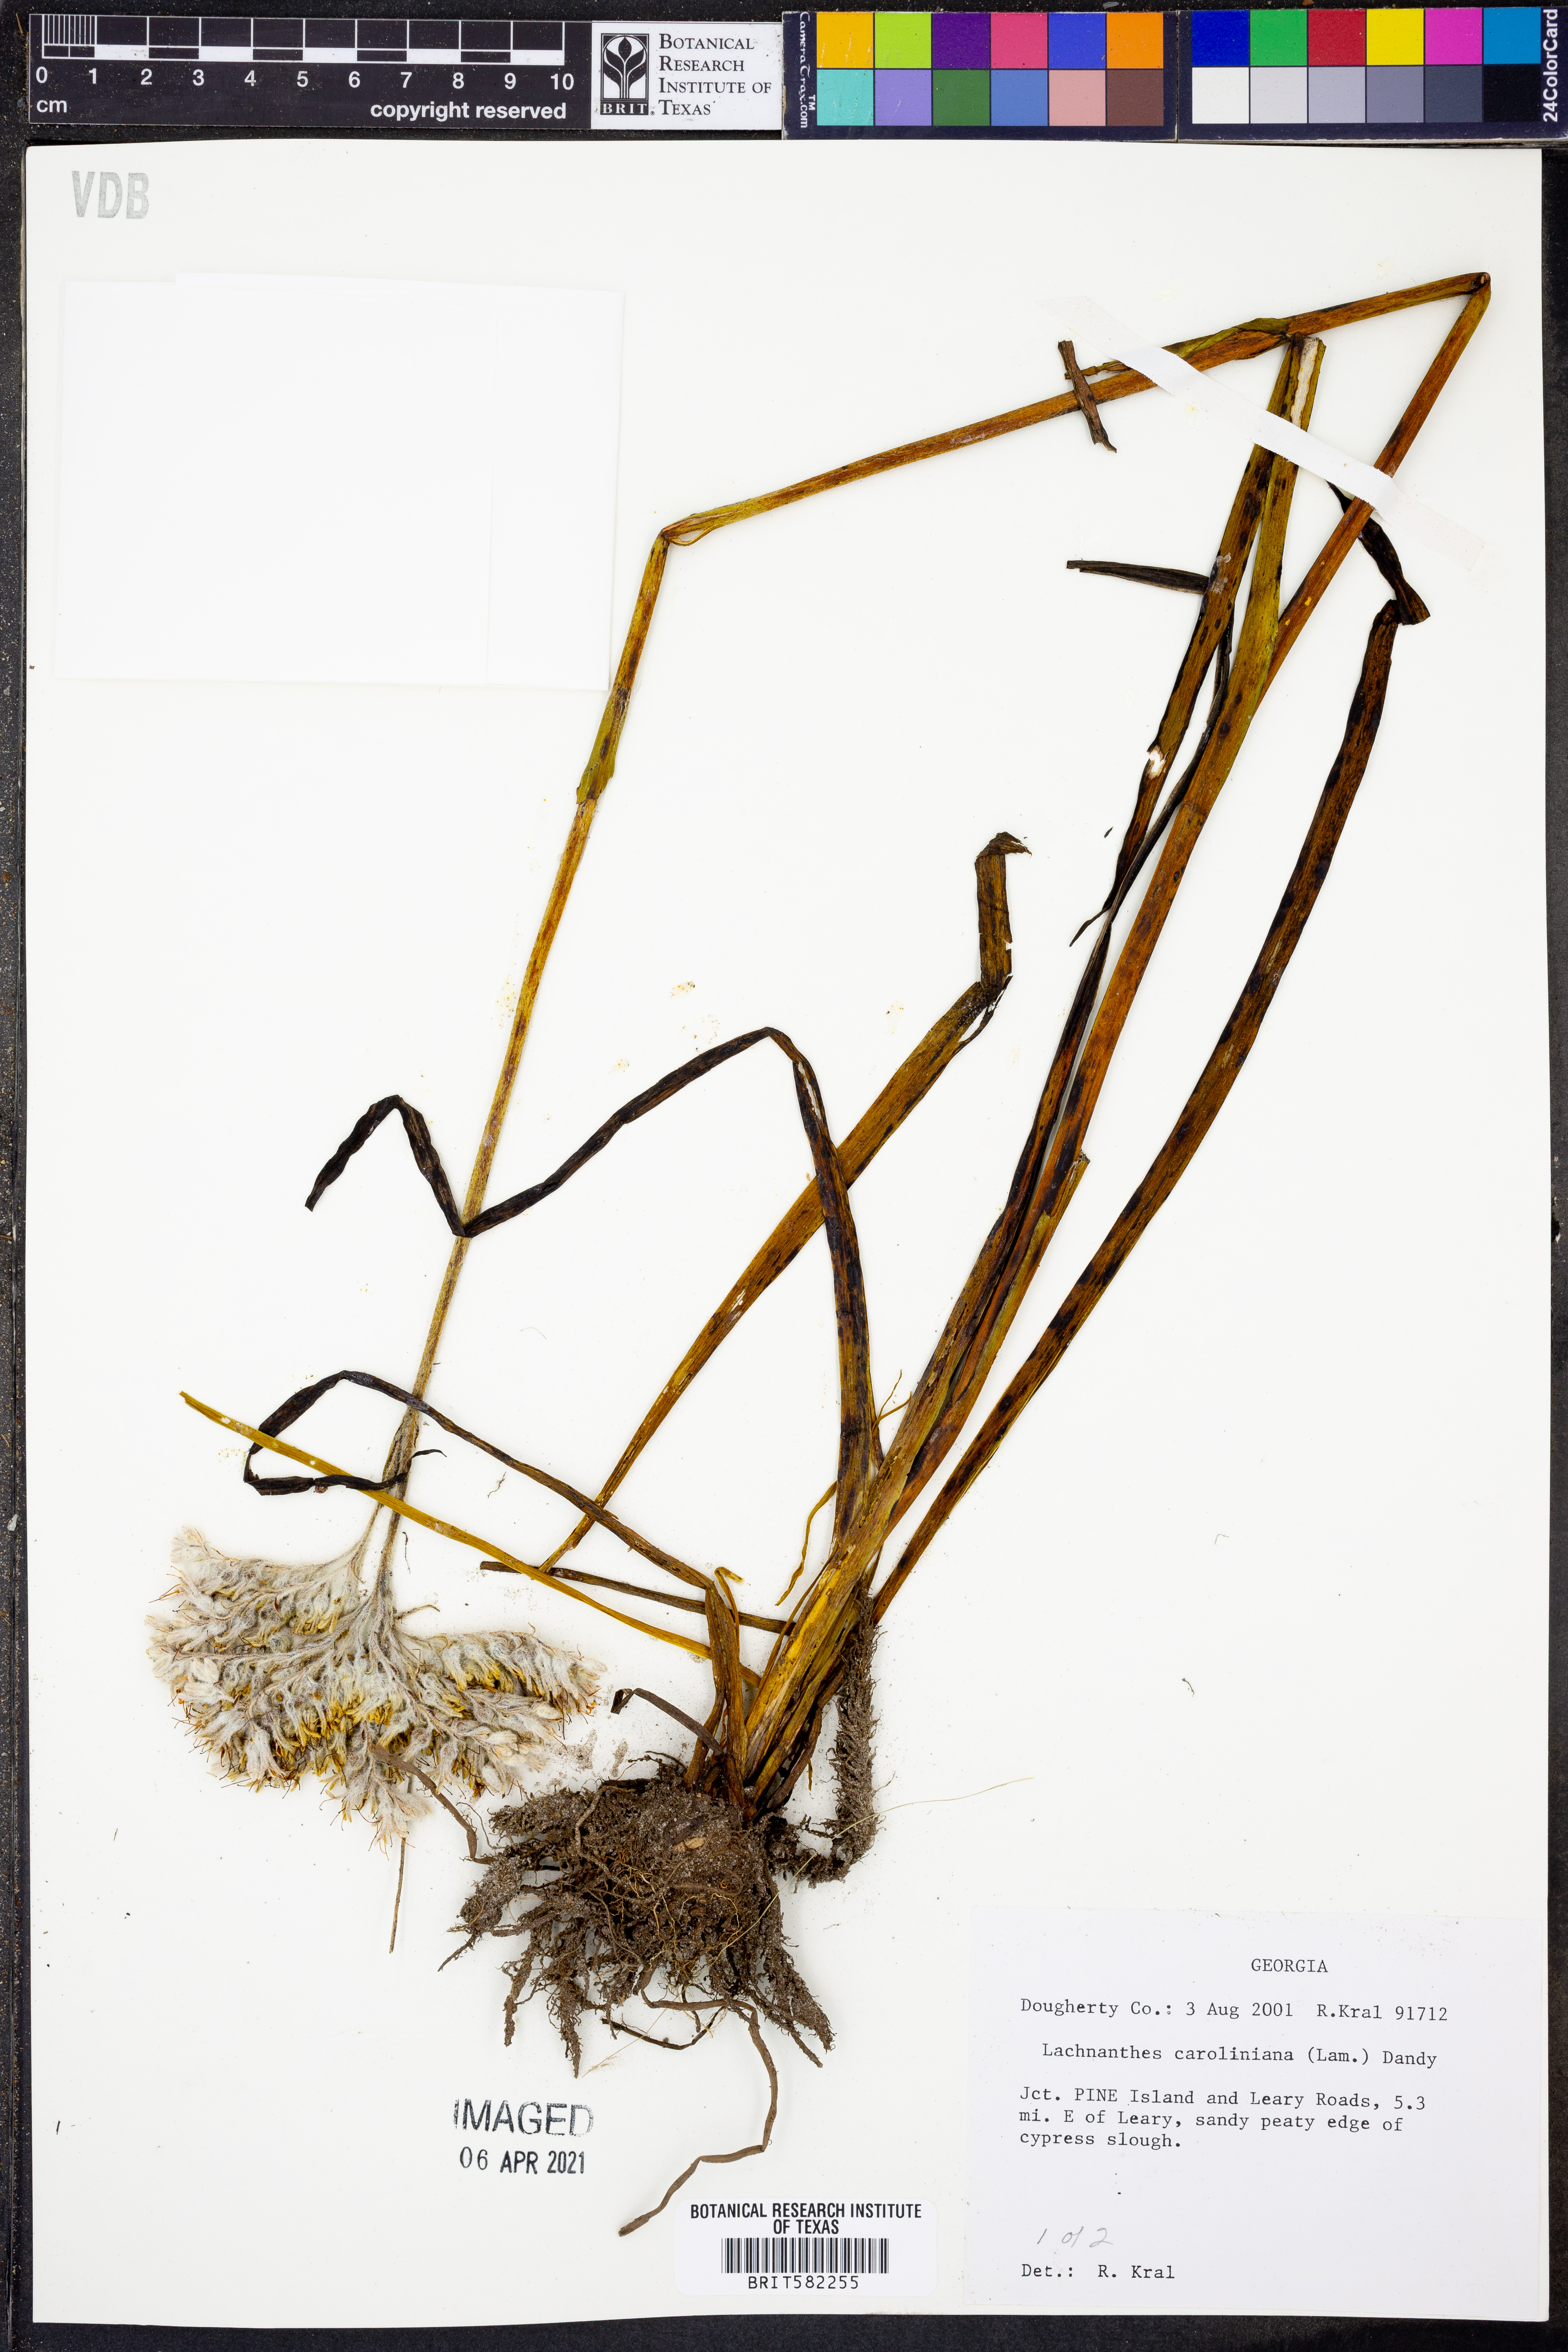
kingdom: Plantae
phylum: Tracheophyta
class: Liliopsida
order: Commelinales
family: Haemodoraceae
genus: Lachnanthes
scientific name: Lachnanthes caroliniana
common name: Carolina redroot
